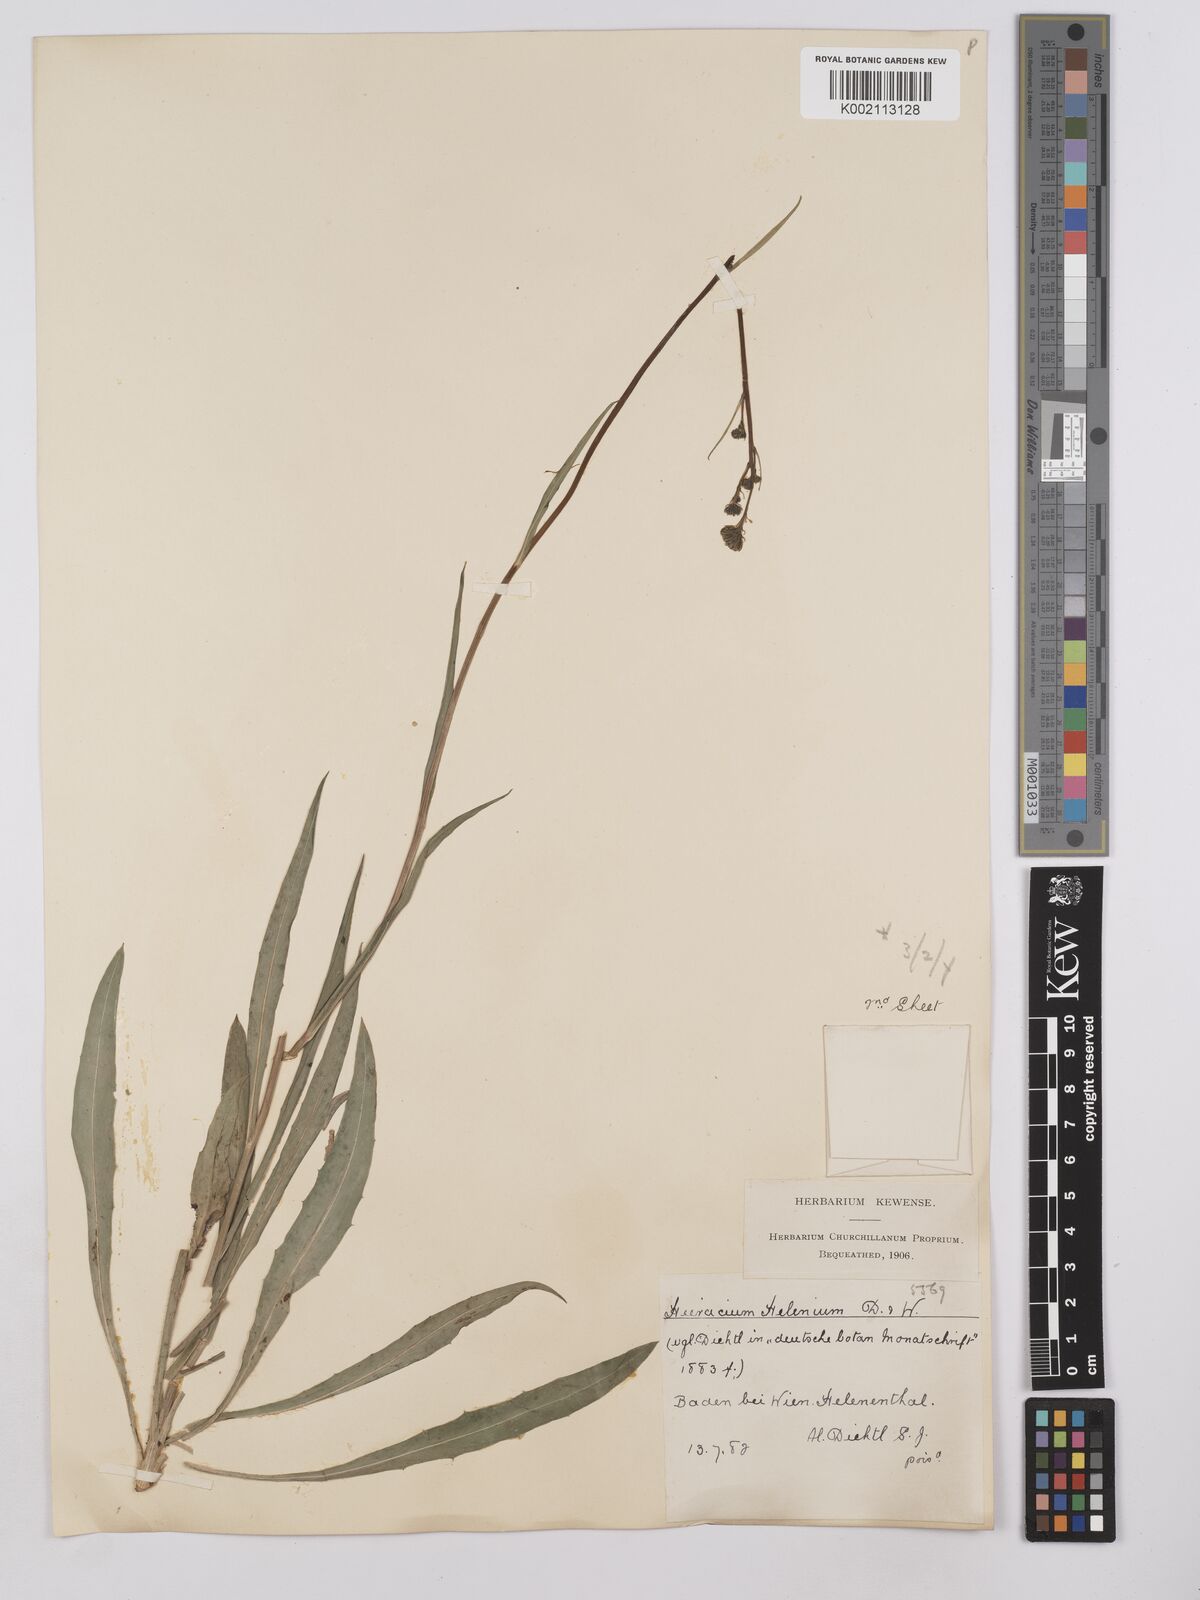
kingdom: Plantae
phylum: Tracheophyta
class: Magnoliopsida
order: Asterales
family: Asteraceae
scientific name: Asteraceae
